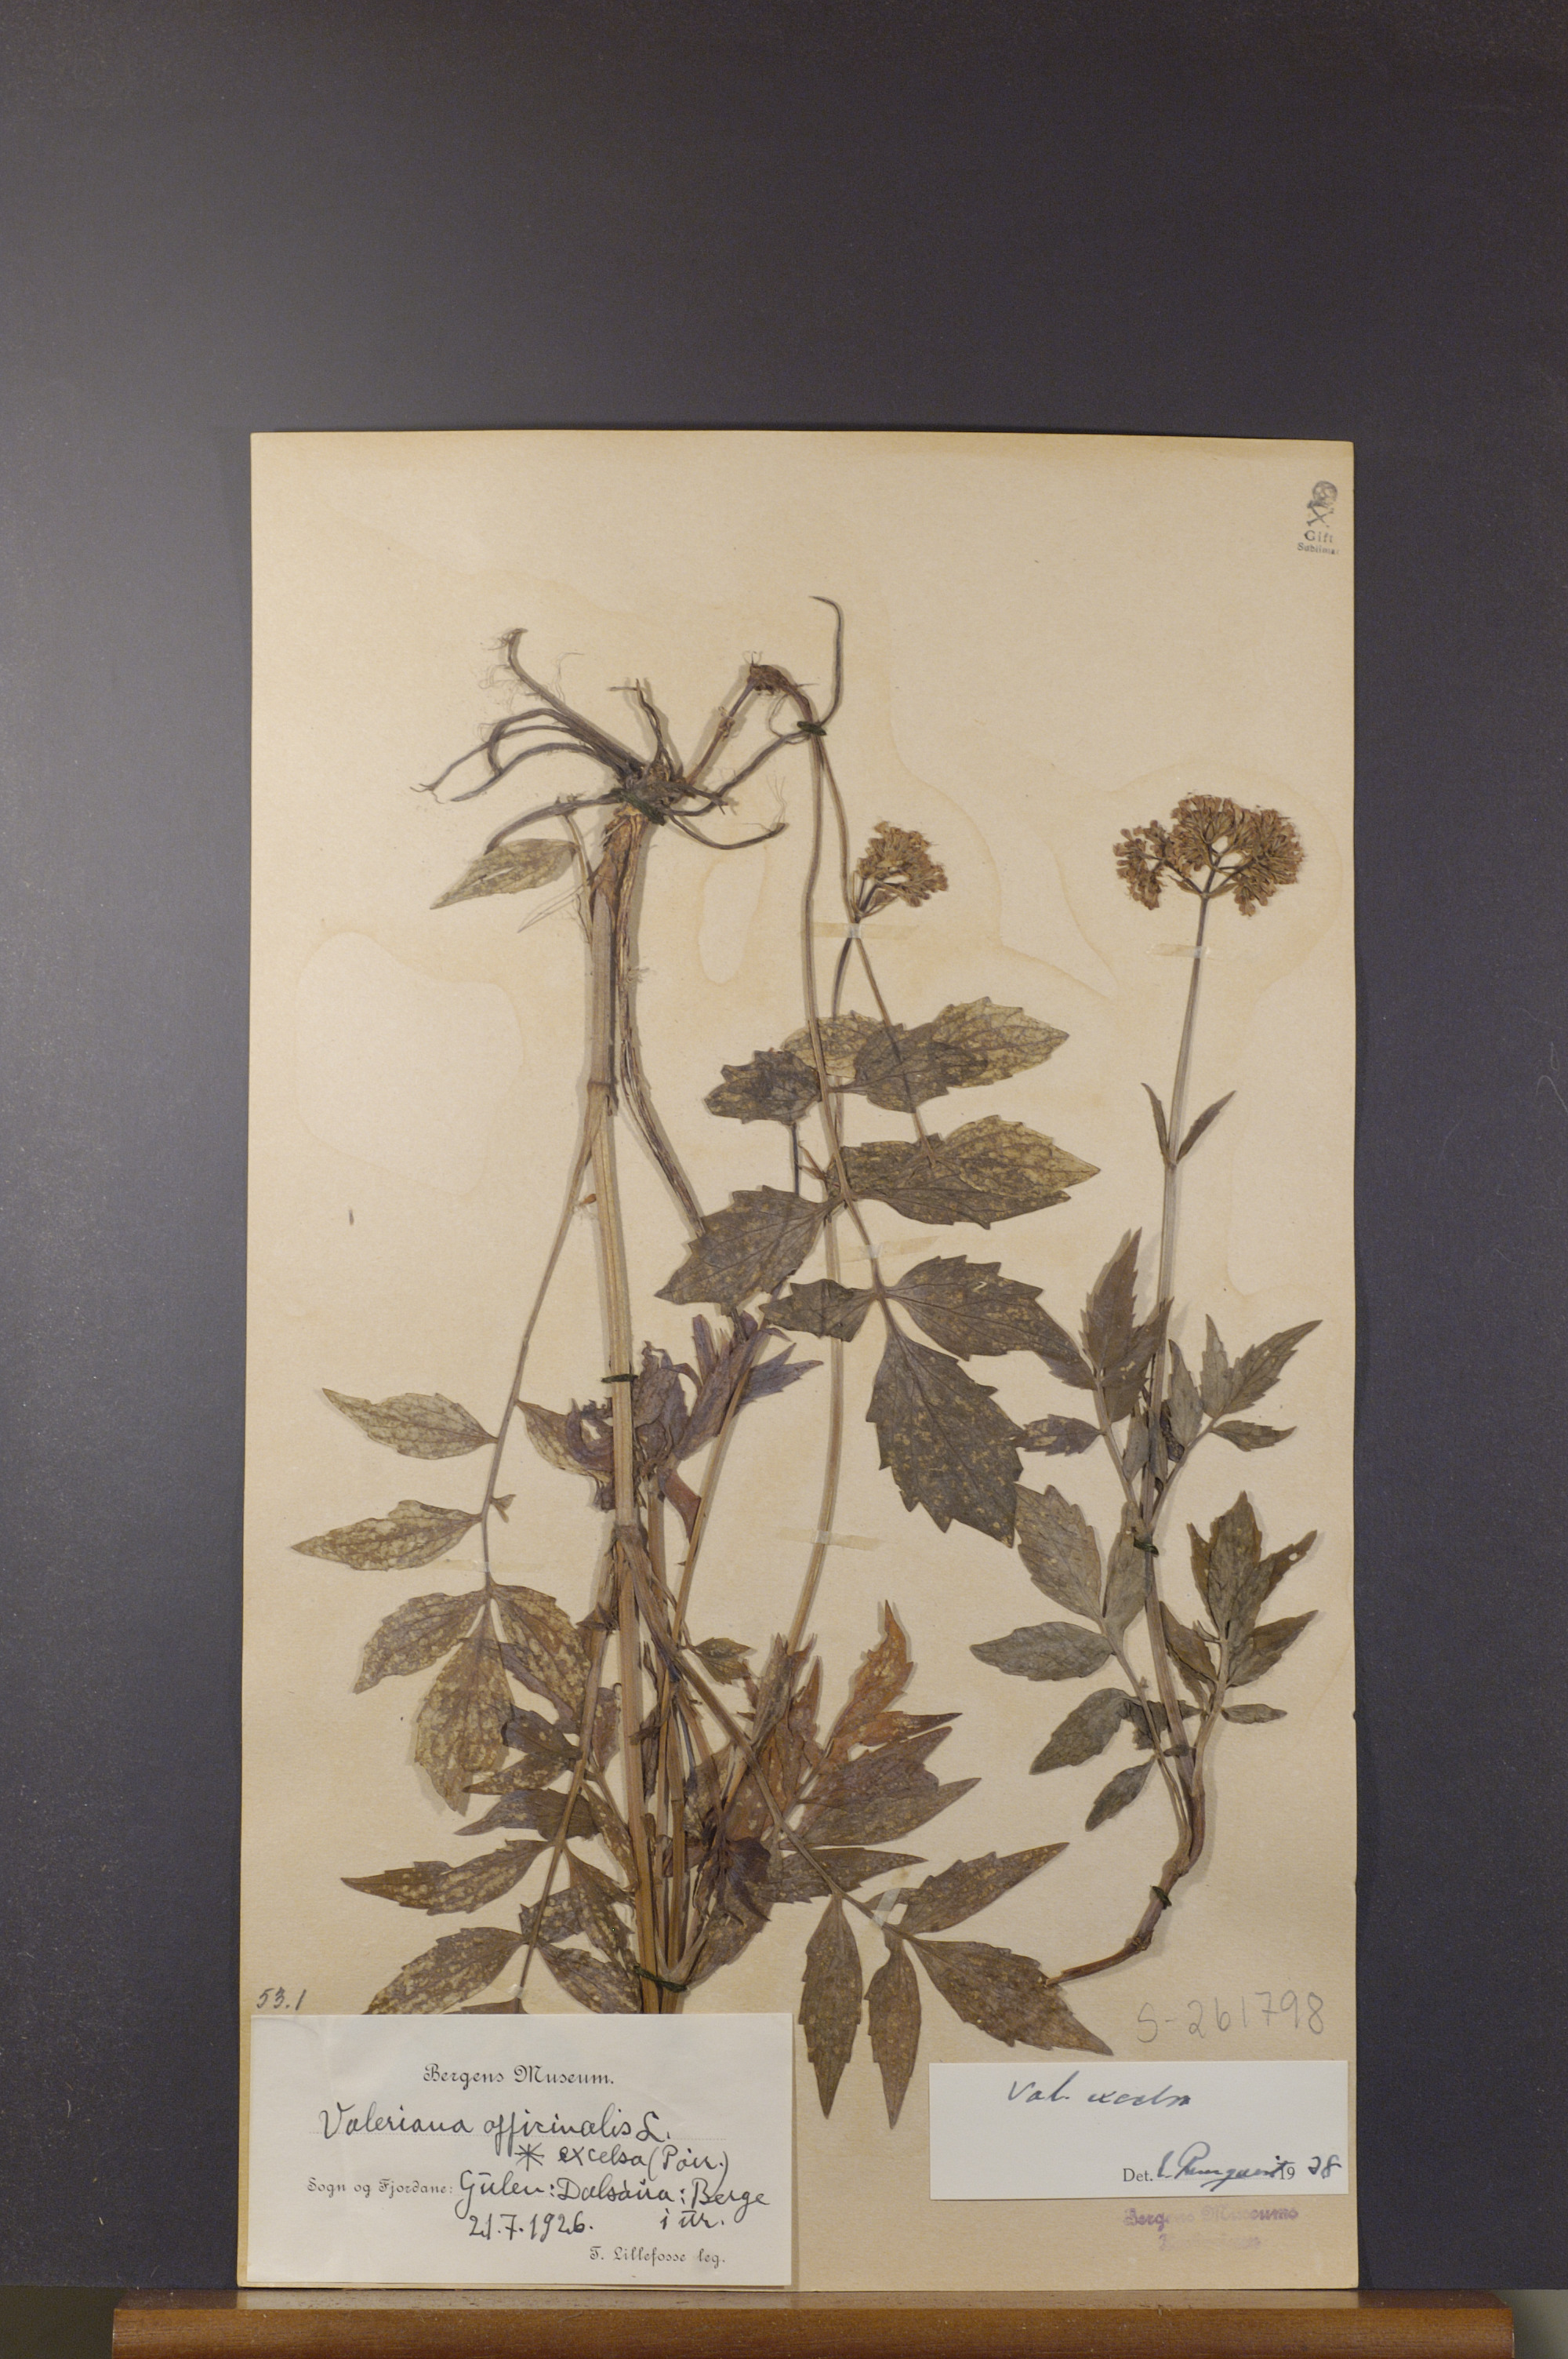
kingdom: Plantae
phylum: Tracheophyta
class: Magnoliopsida
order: Dipsacales
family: Caprifoliaceae
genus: Valeriana
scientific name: Valeriana sambucifolia
